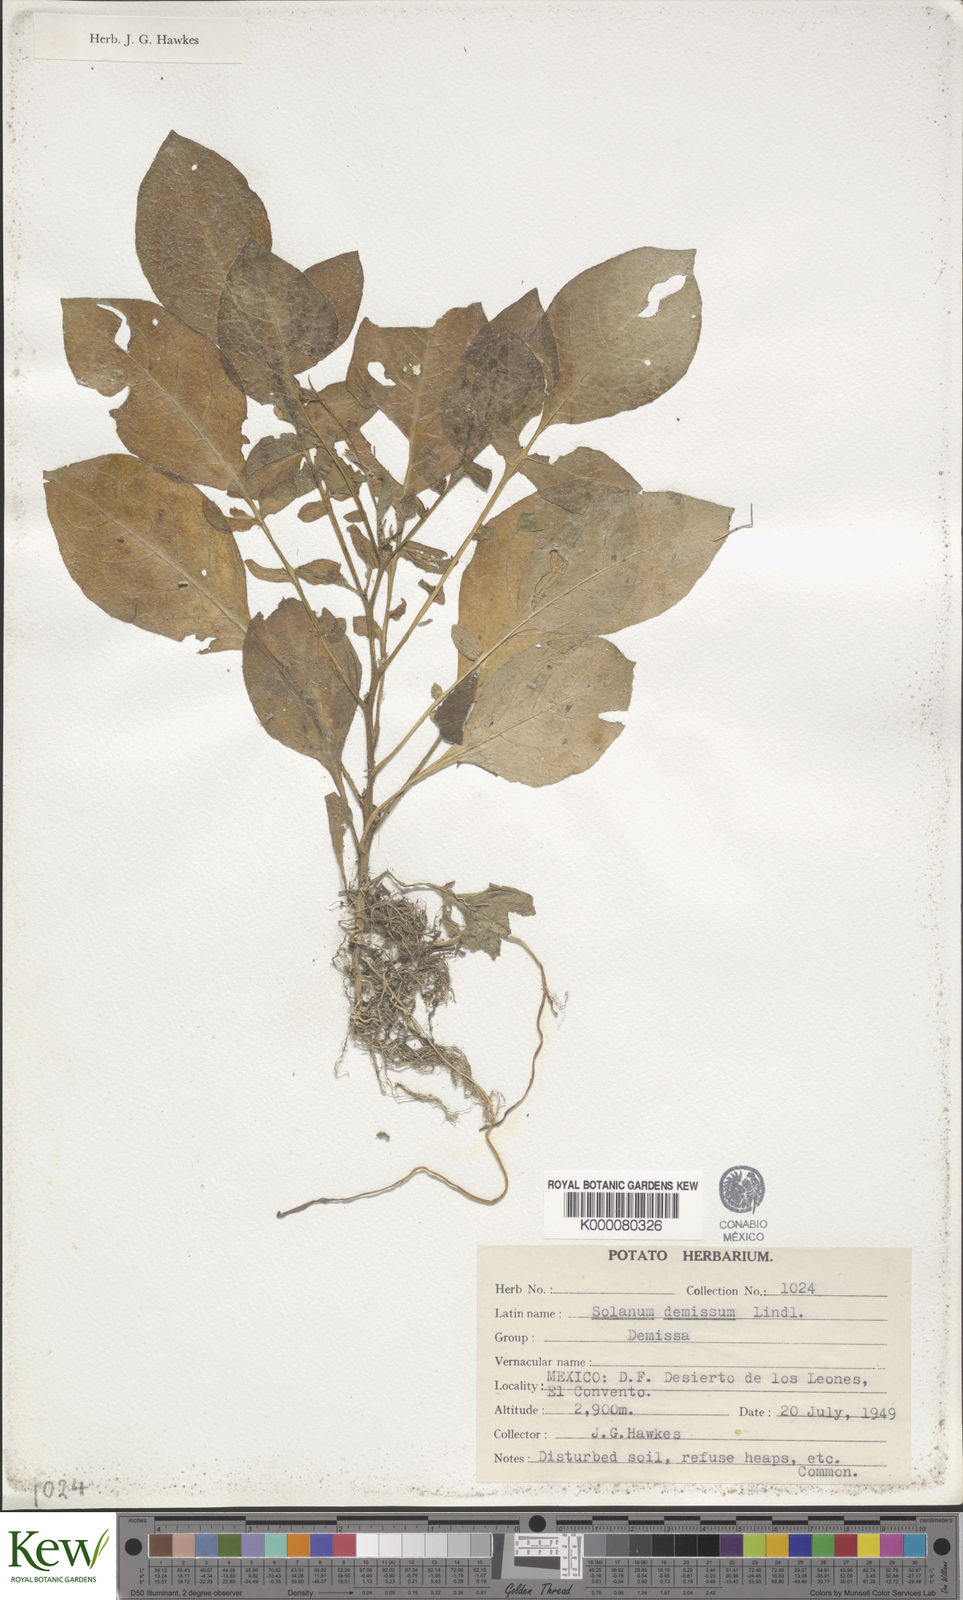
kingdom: Plantae
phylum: Tracheophyta
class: Magnoliopsida
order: Solanales
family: Solanaceae
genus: Solanum
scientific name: Solanum demissum
